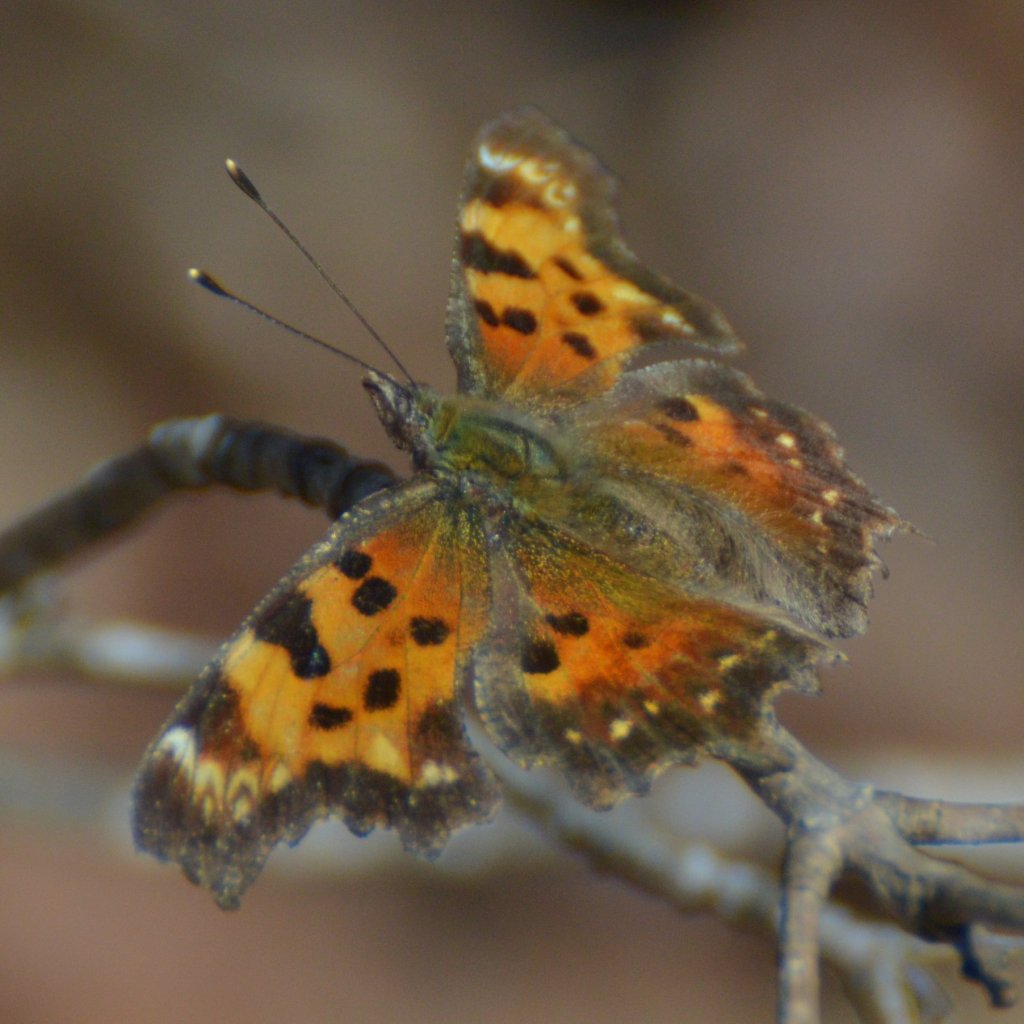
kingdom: Animalia
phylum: Arthropoda
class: Insecta
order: Lepidoptera
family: Nymphalidae
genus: Polygonia
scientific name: Polygonia faunus
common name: Green Comma
